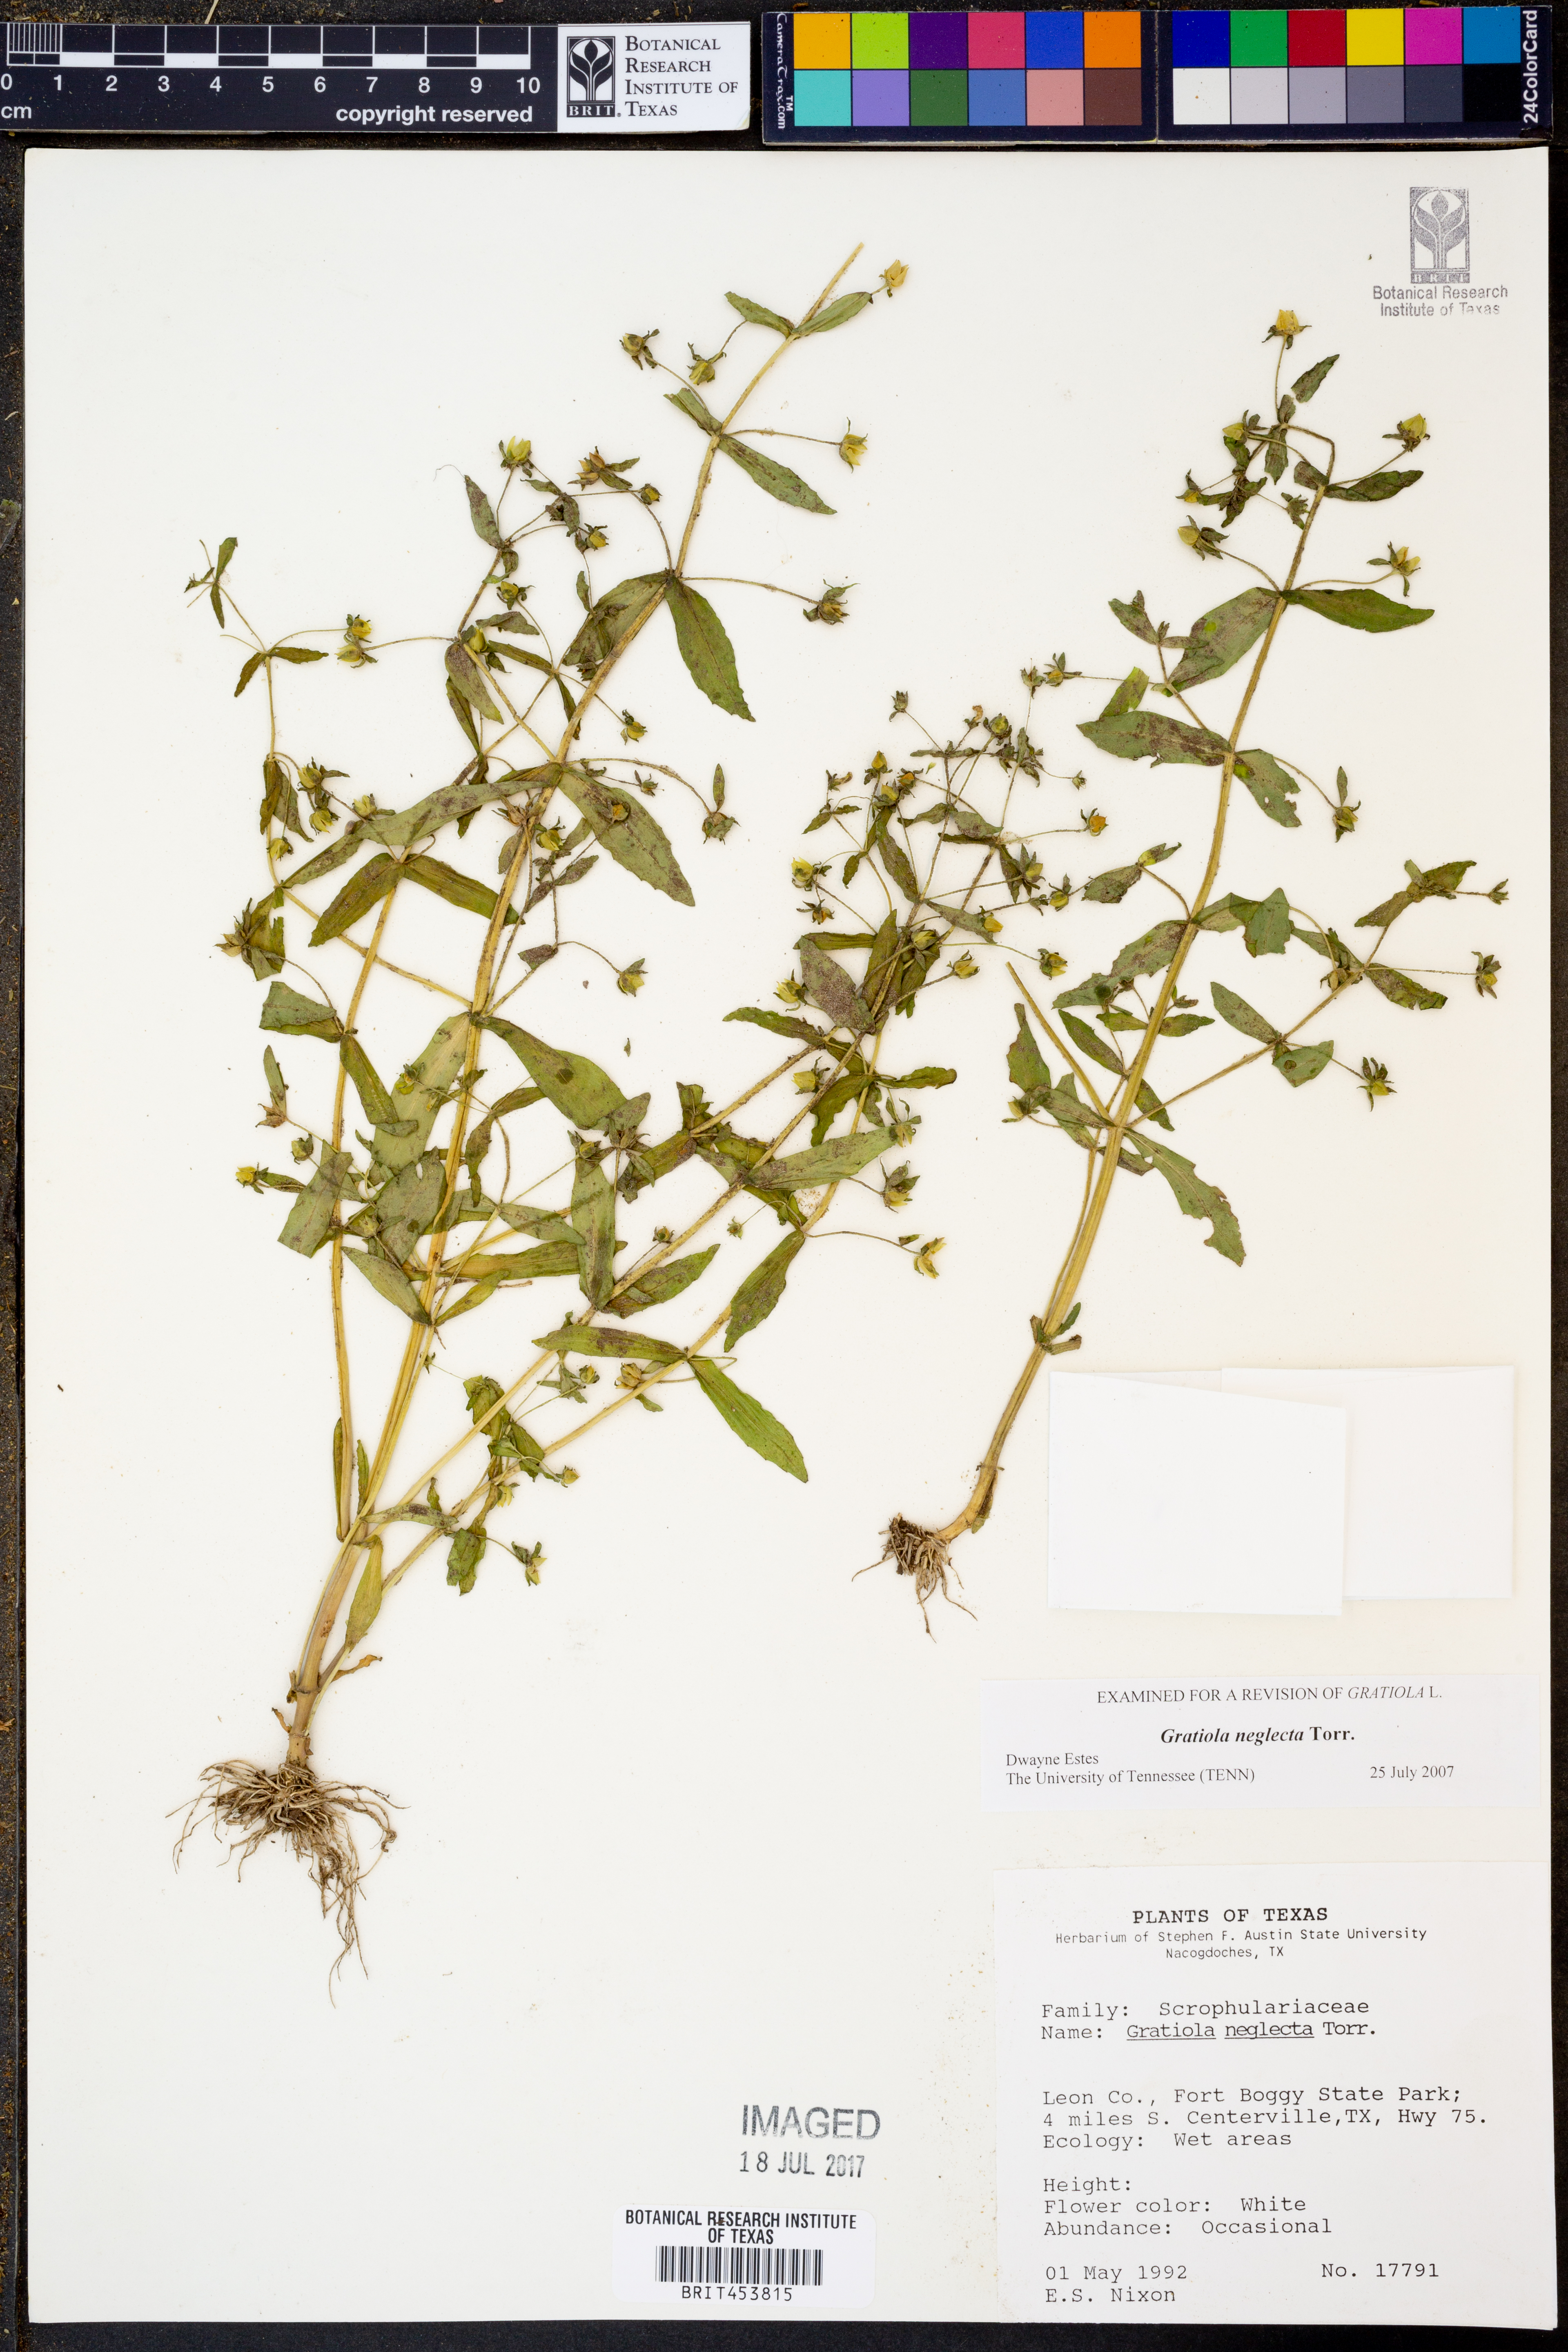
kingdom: Plantae
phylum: Tracheophyta
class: Magnoliopsida
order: Lamiales
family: Plantaginaceae
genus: Gratiola
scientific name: Gratiola neglecta
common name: American hedge-hyssop
